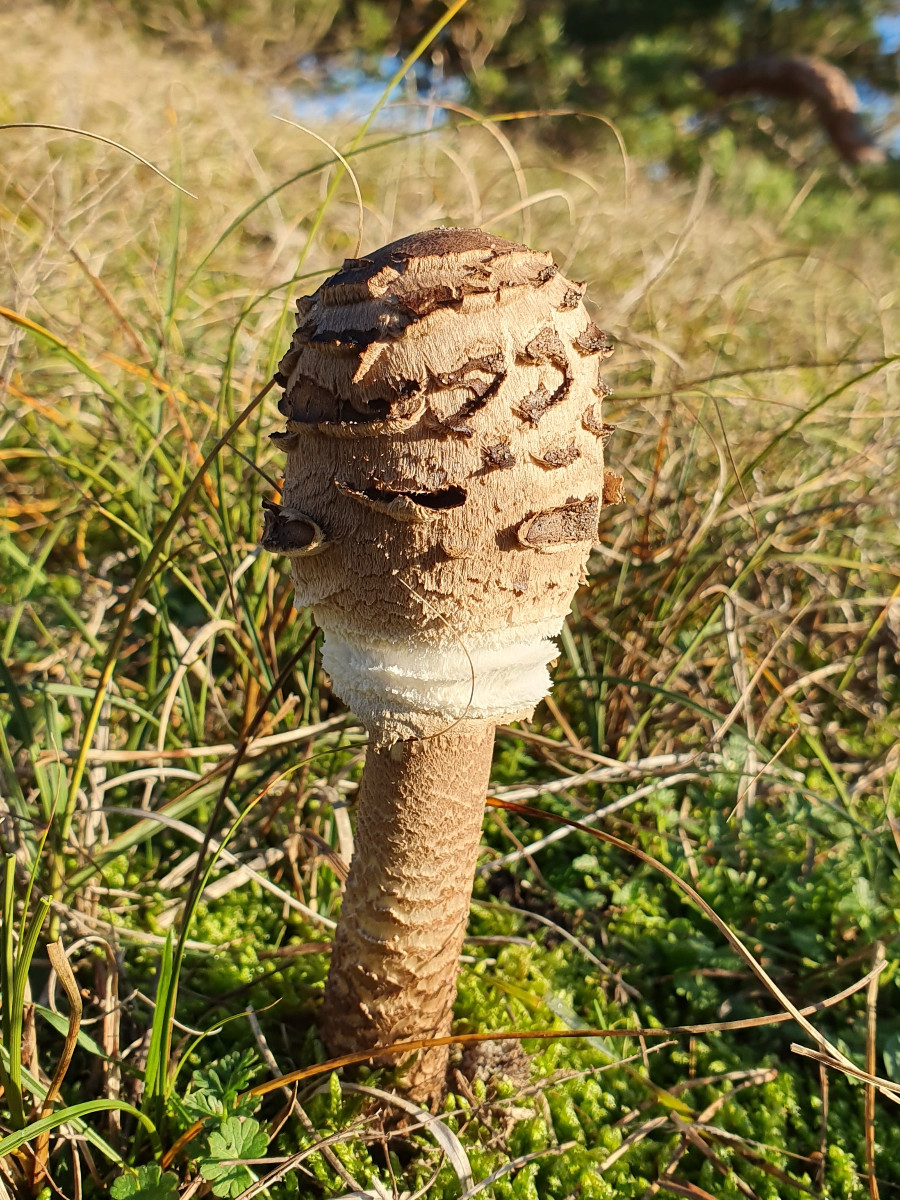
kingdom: Fungi
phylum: Basidiomycota
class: Agaricomycetes
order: Agaricales
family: Agaricaceae
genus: Macrolepiota
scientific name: Macrolepiota procera
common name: stor kæmpeparasolhat
